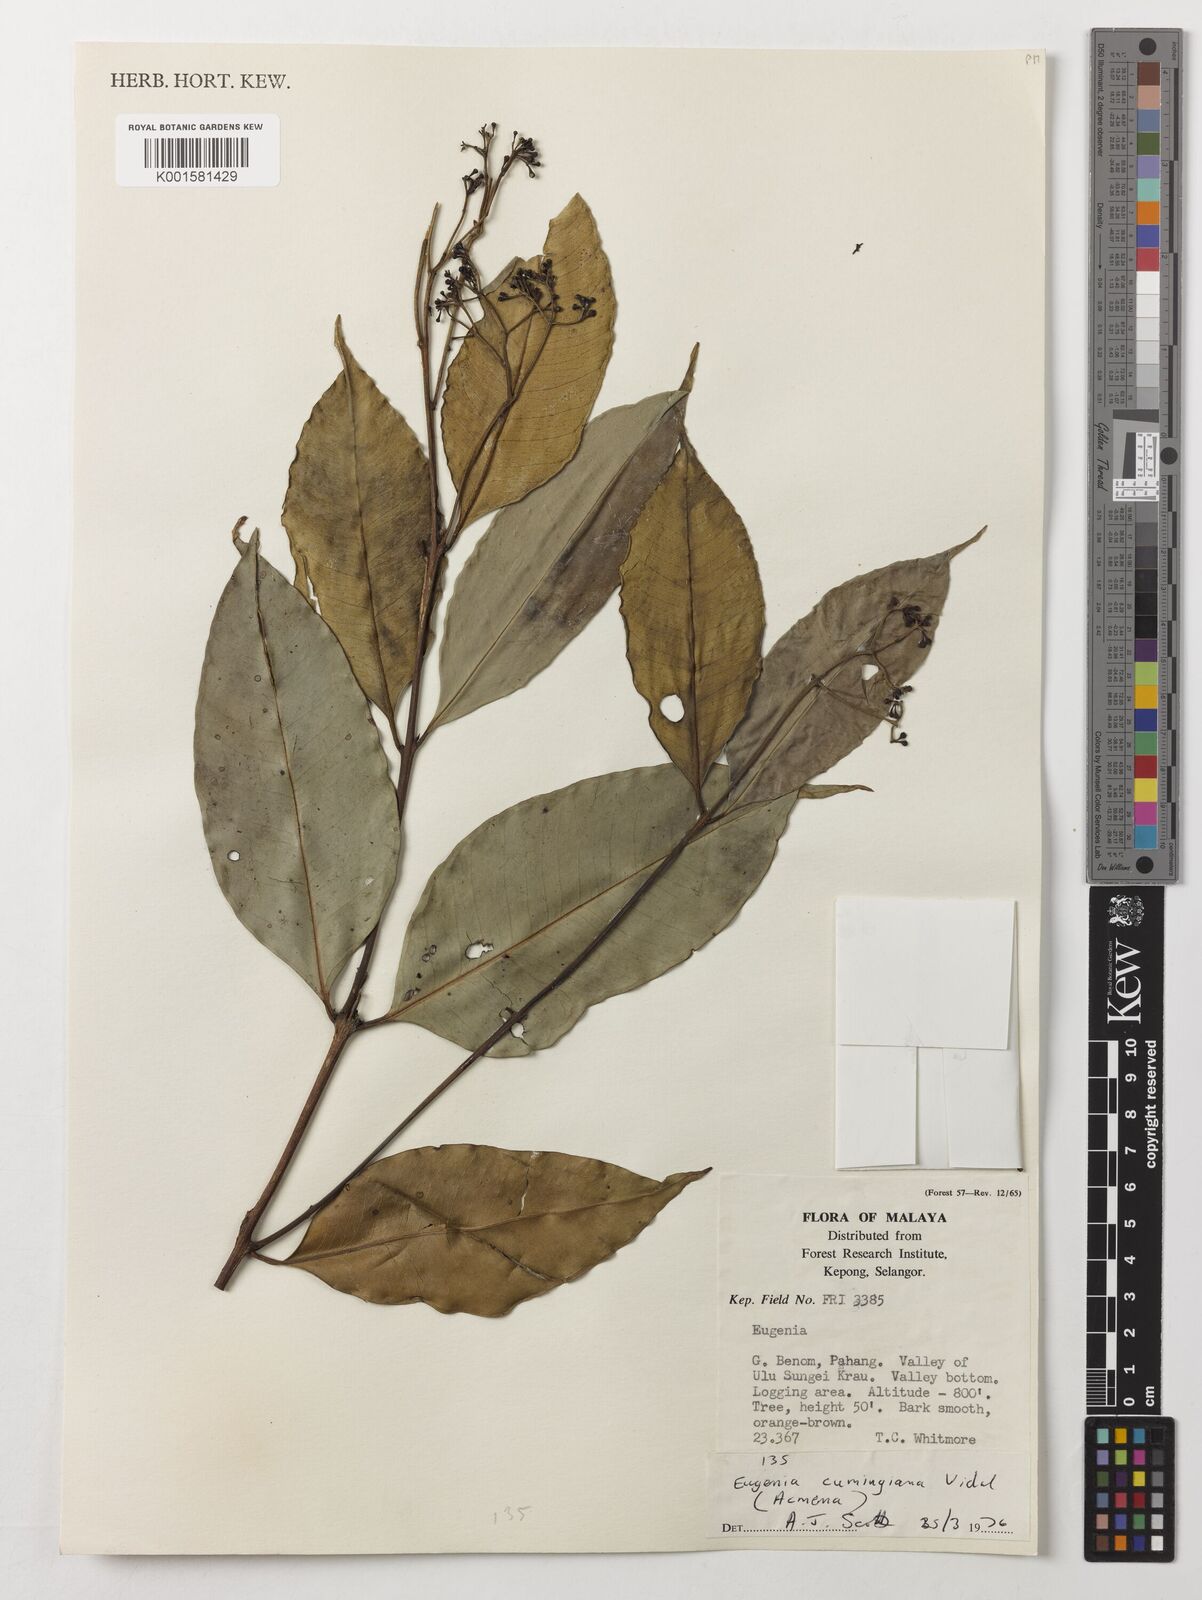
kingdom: Plantae
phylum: Tracheophyta
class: Magnoliopsida
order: Myrtales
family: Myrtaceae
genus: Syzygium
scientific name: Syzygium acuminatissimum
